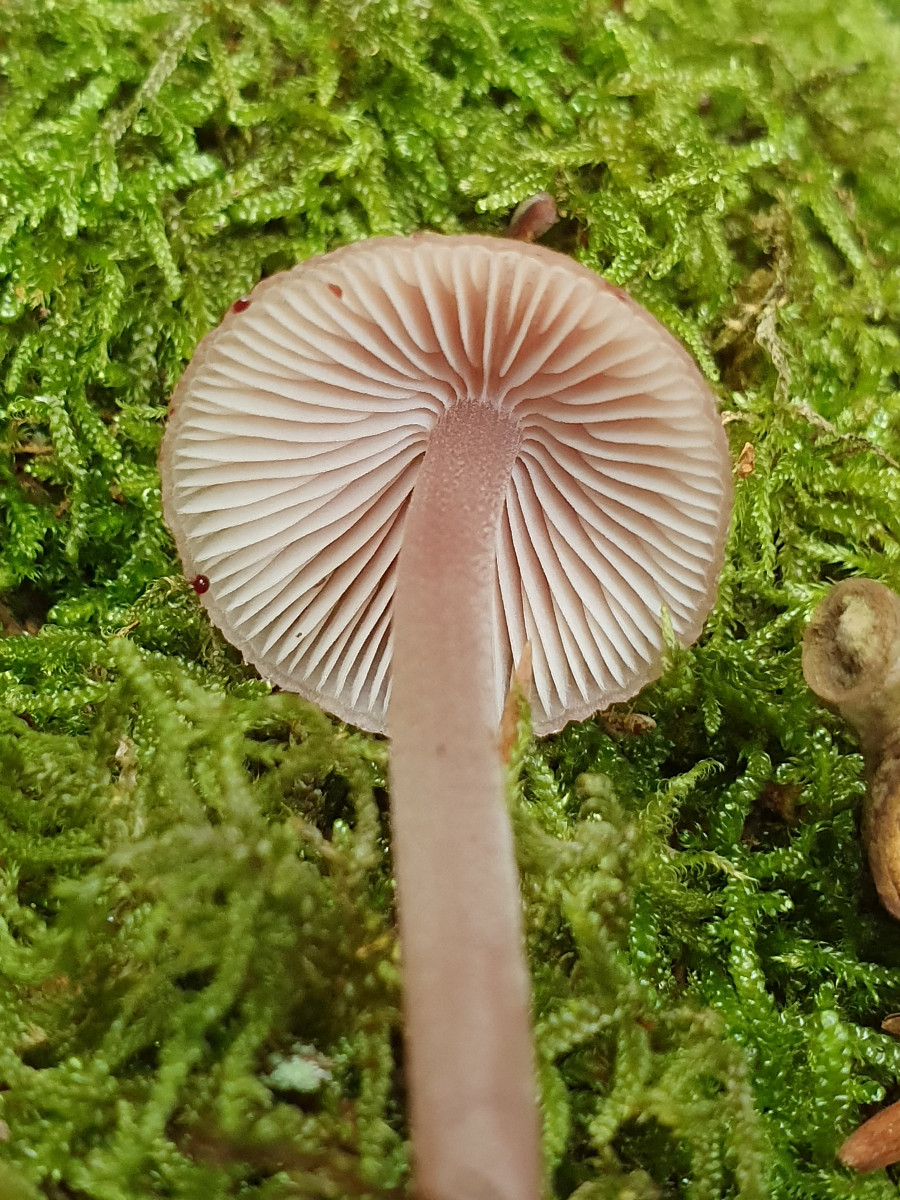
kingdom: Fungi
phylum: Basidiomycota
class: Agaricomycetes
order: Agaricales
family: Mycenaceae
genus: Mycena
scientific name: Mycena haematopus
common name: blødende huesvamp
